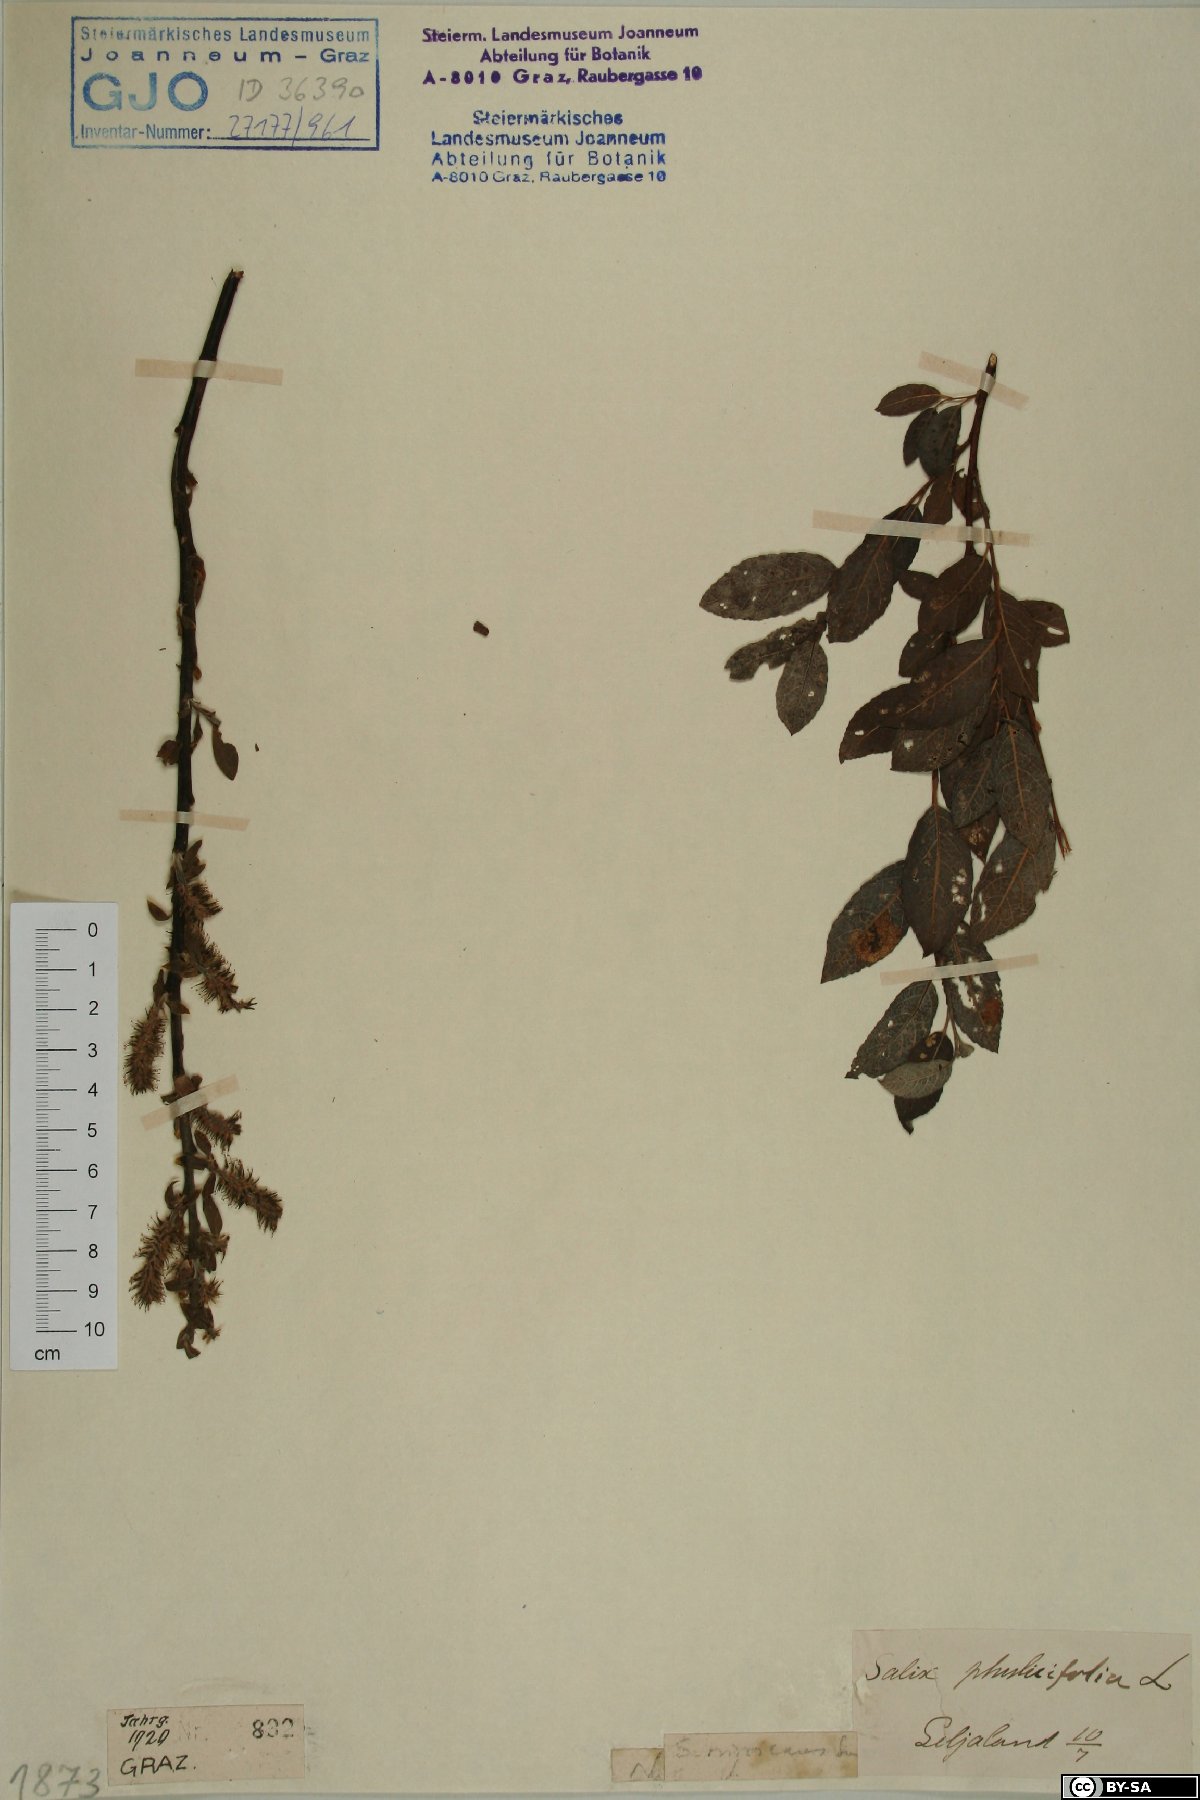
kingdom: Plantae
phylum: Tracheophyta
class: Magnoliopsida
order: Malpighiales
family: Salicaceae
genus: Salix
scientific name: Salix myrsinifolia
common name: Dark-leaved willow
